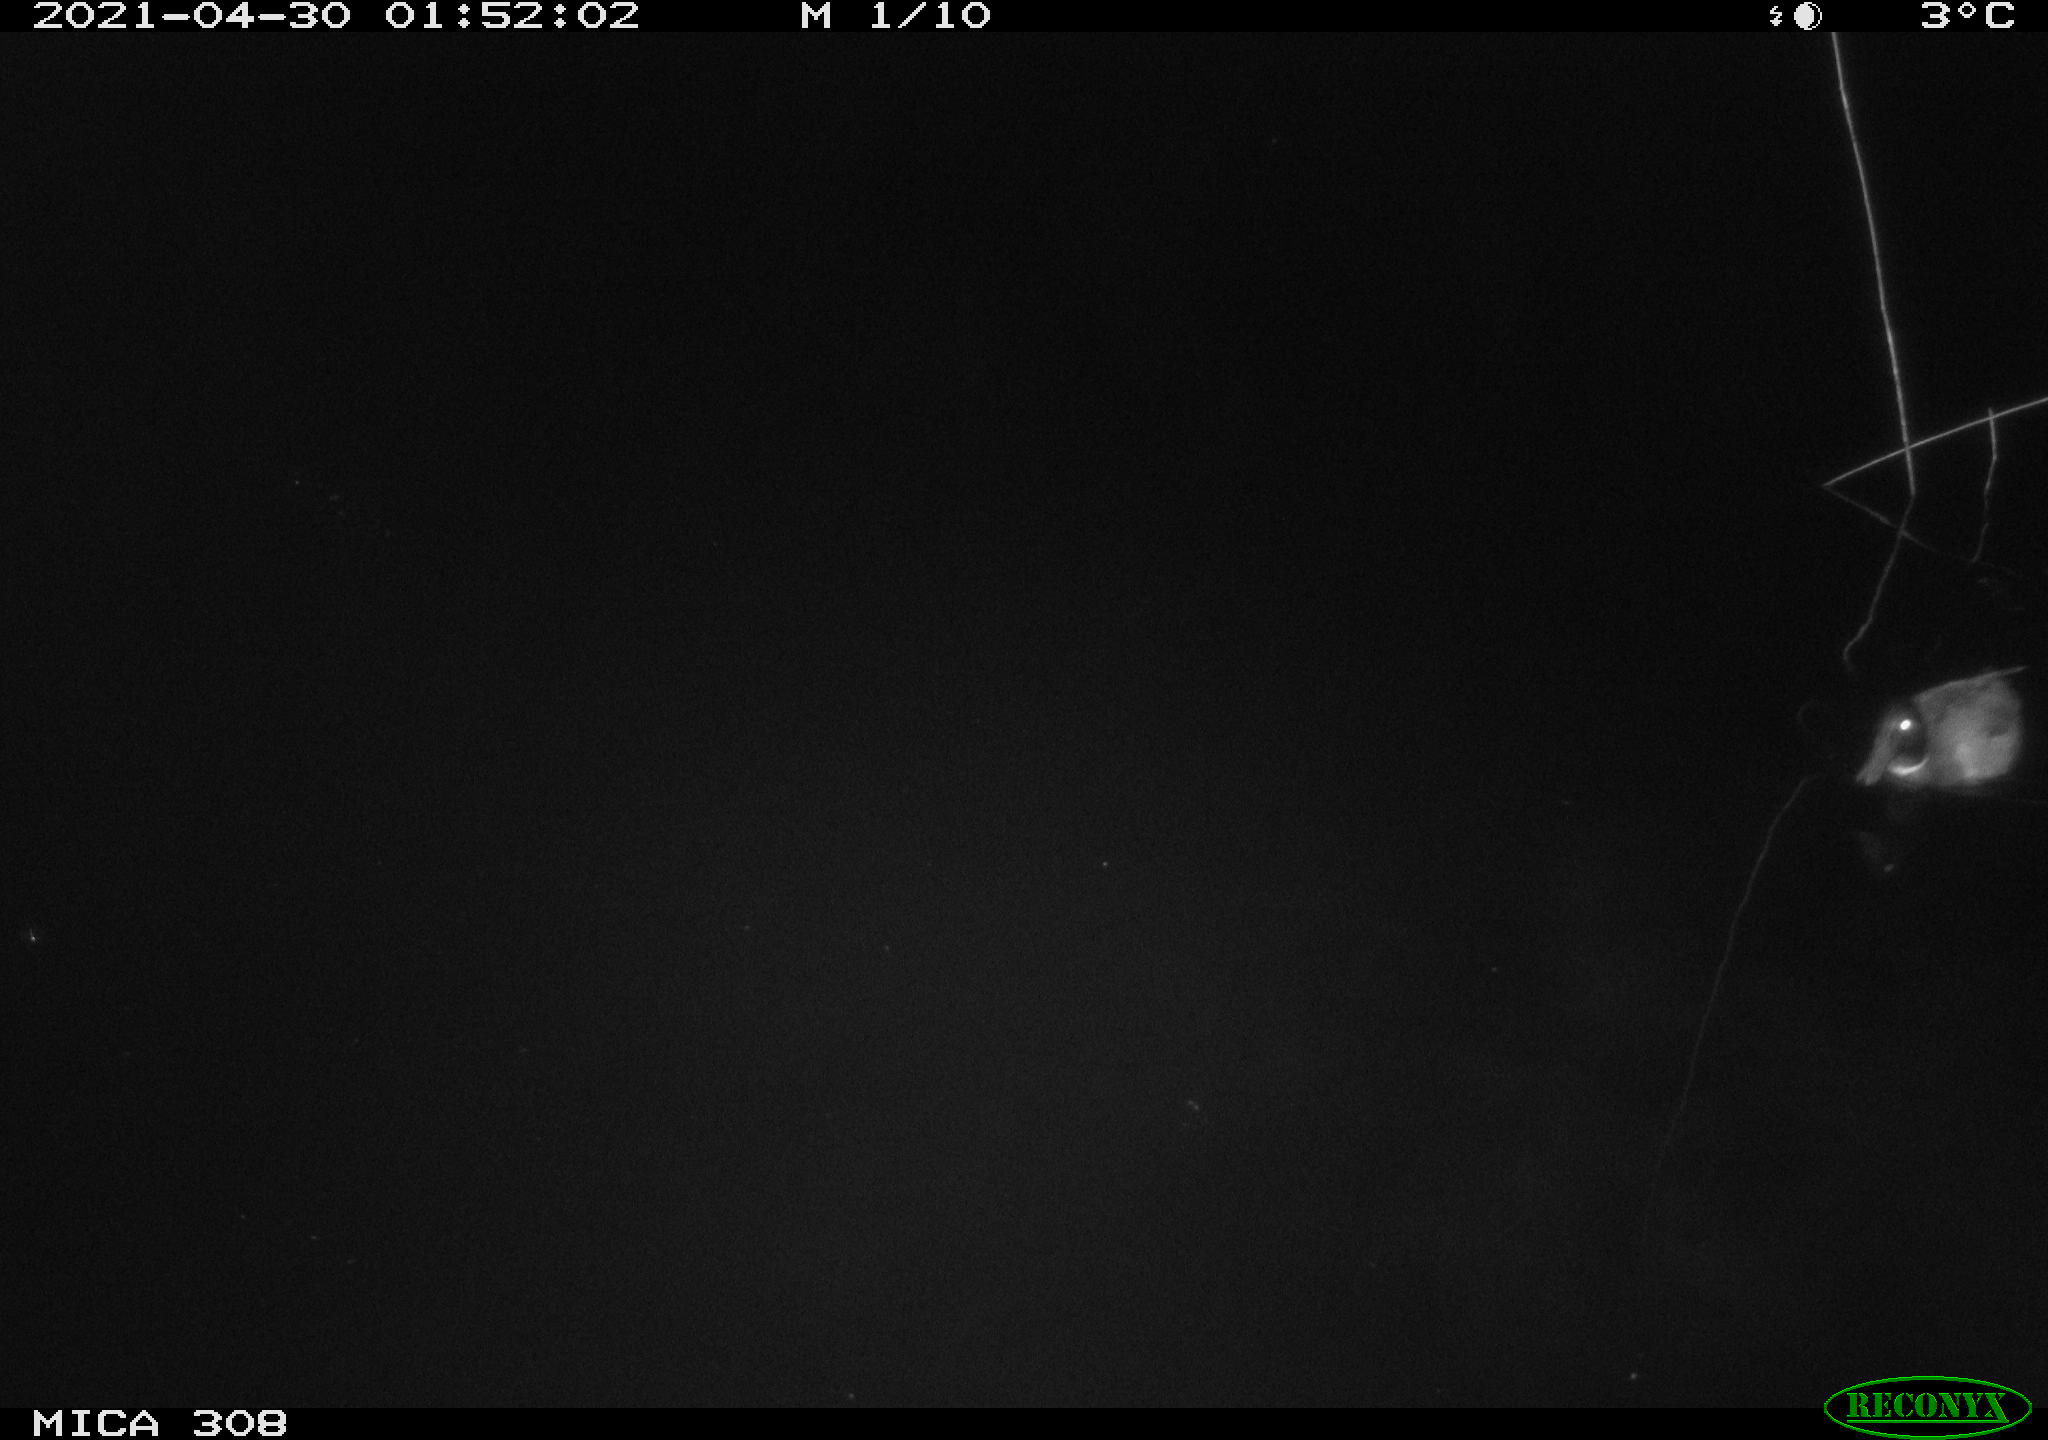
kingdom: Animalia
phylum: Chordata
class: Aves
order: Anseriformes
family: Anatidae
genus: Anas
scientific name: Anas platyrhynchos
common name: Mallard
